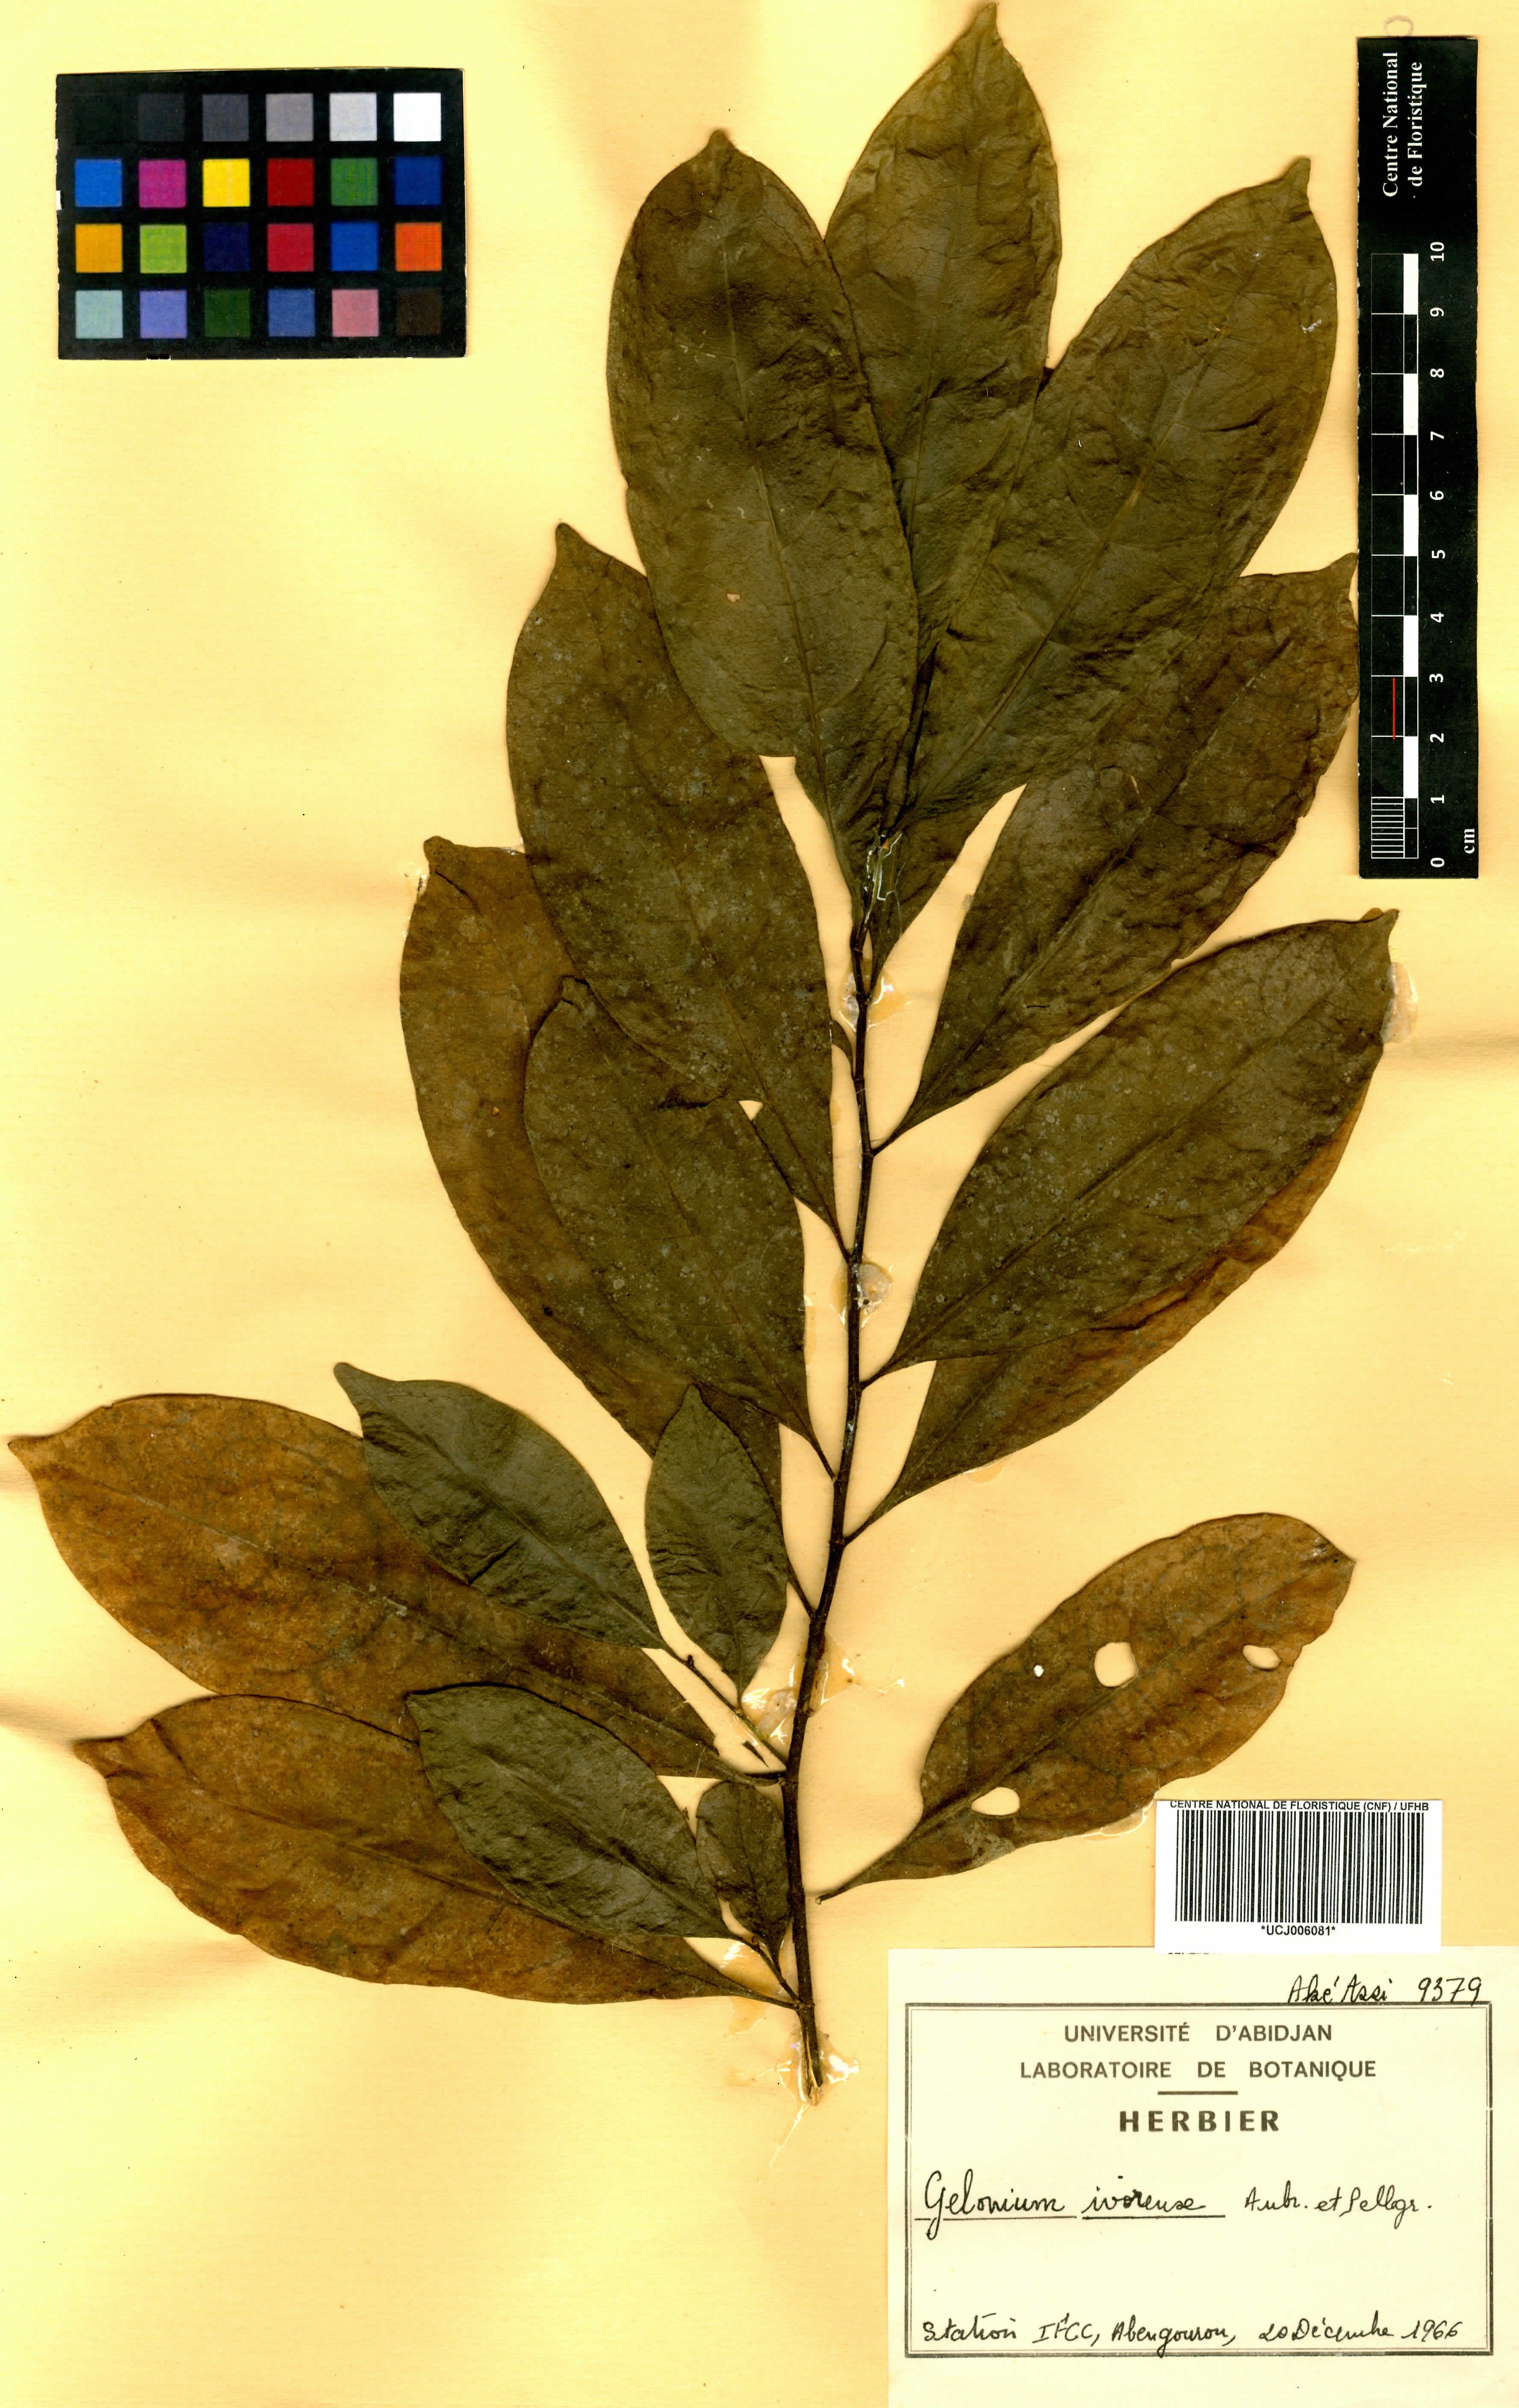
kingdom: Plantae
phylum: Tracheophyta
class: Magnoliopsida
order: Malpighiales
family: Euphorbiaceae
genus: Suregada
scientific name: Suregada ivorensis
